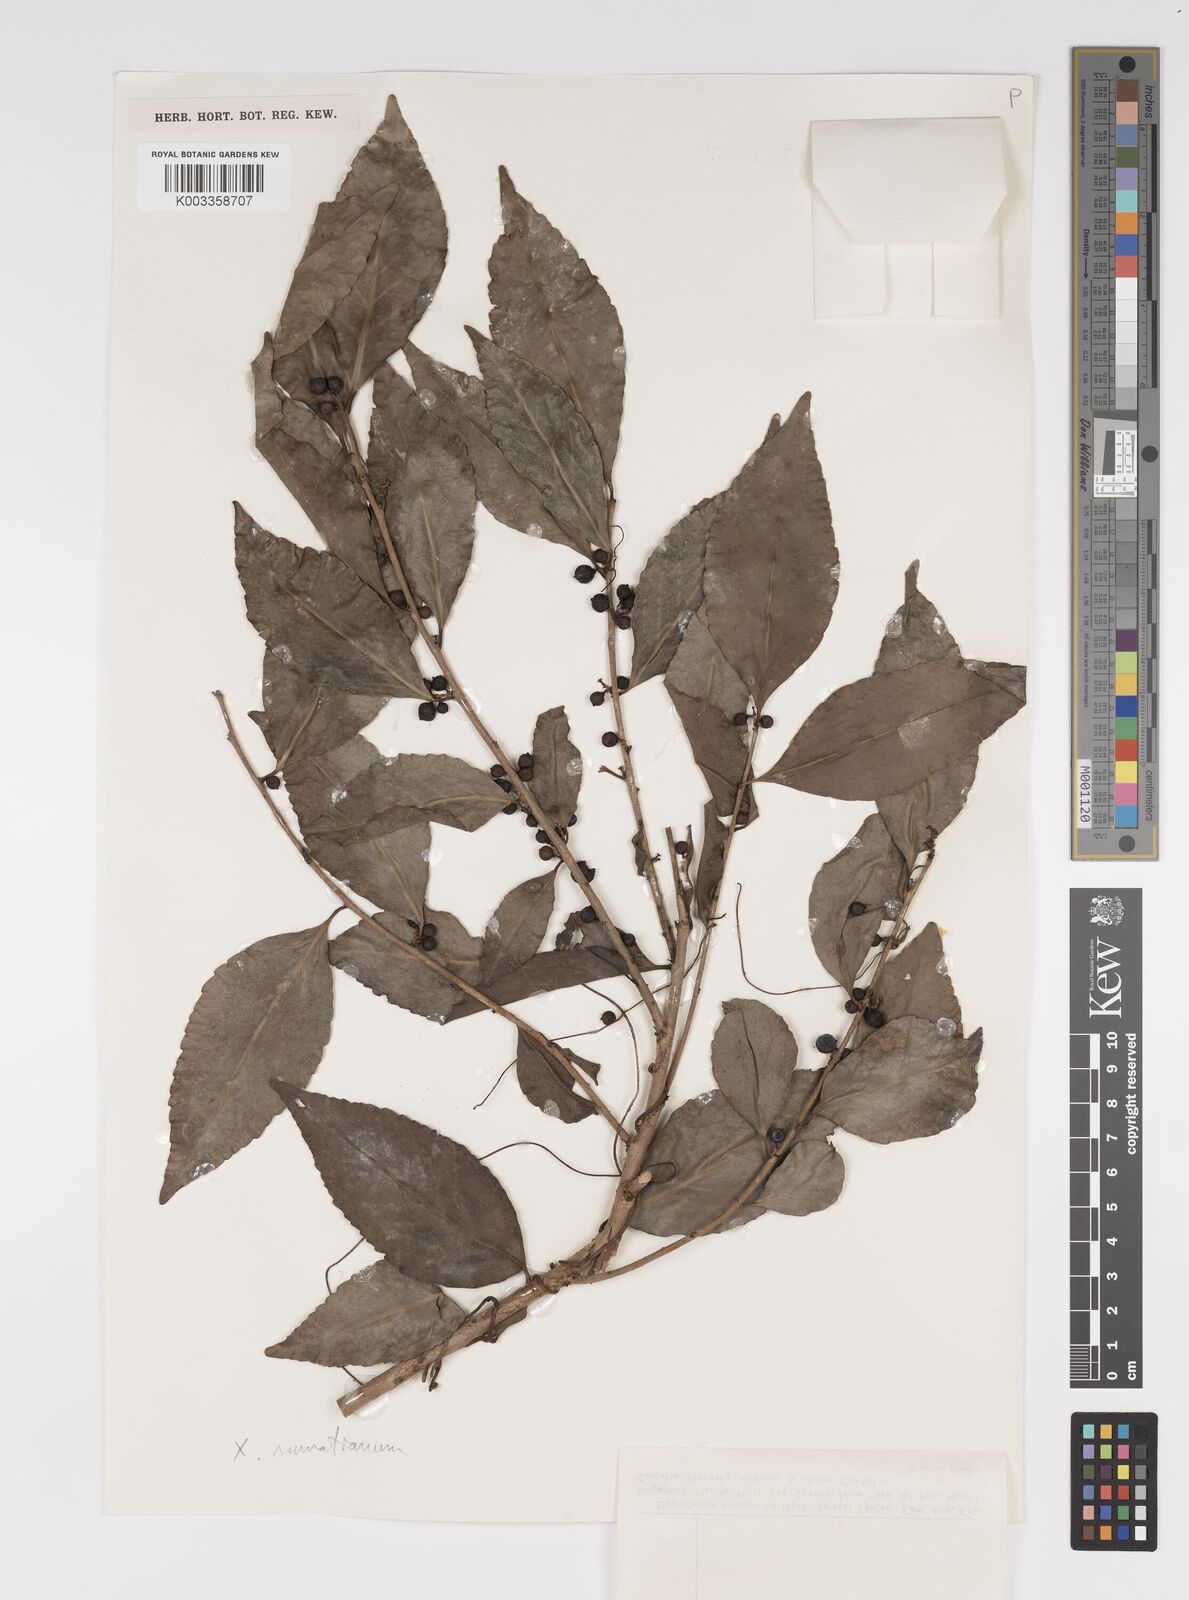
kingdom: Plantae
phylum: Tracheophyta
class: Magnoliopsida
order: Malpighiales
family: Salicaceae
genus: Xylosma
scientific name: Xylosma sumatrana
